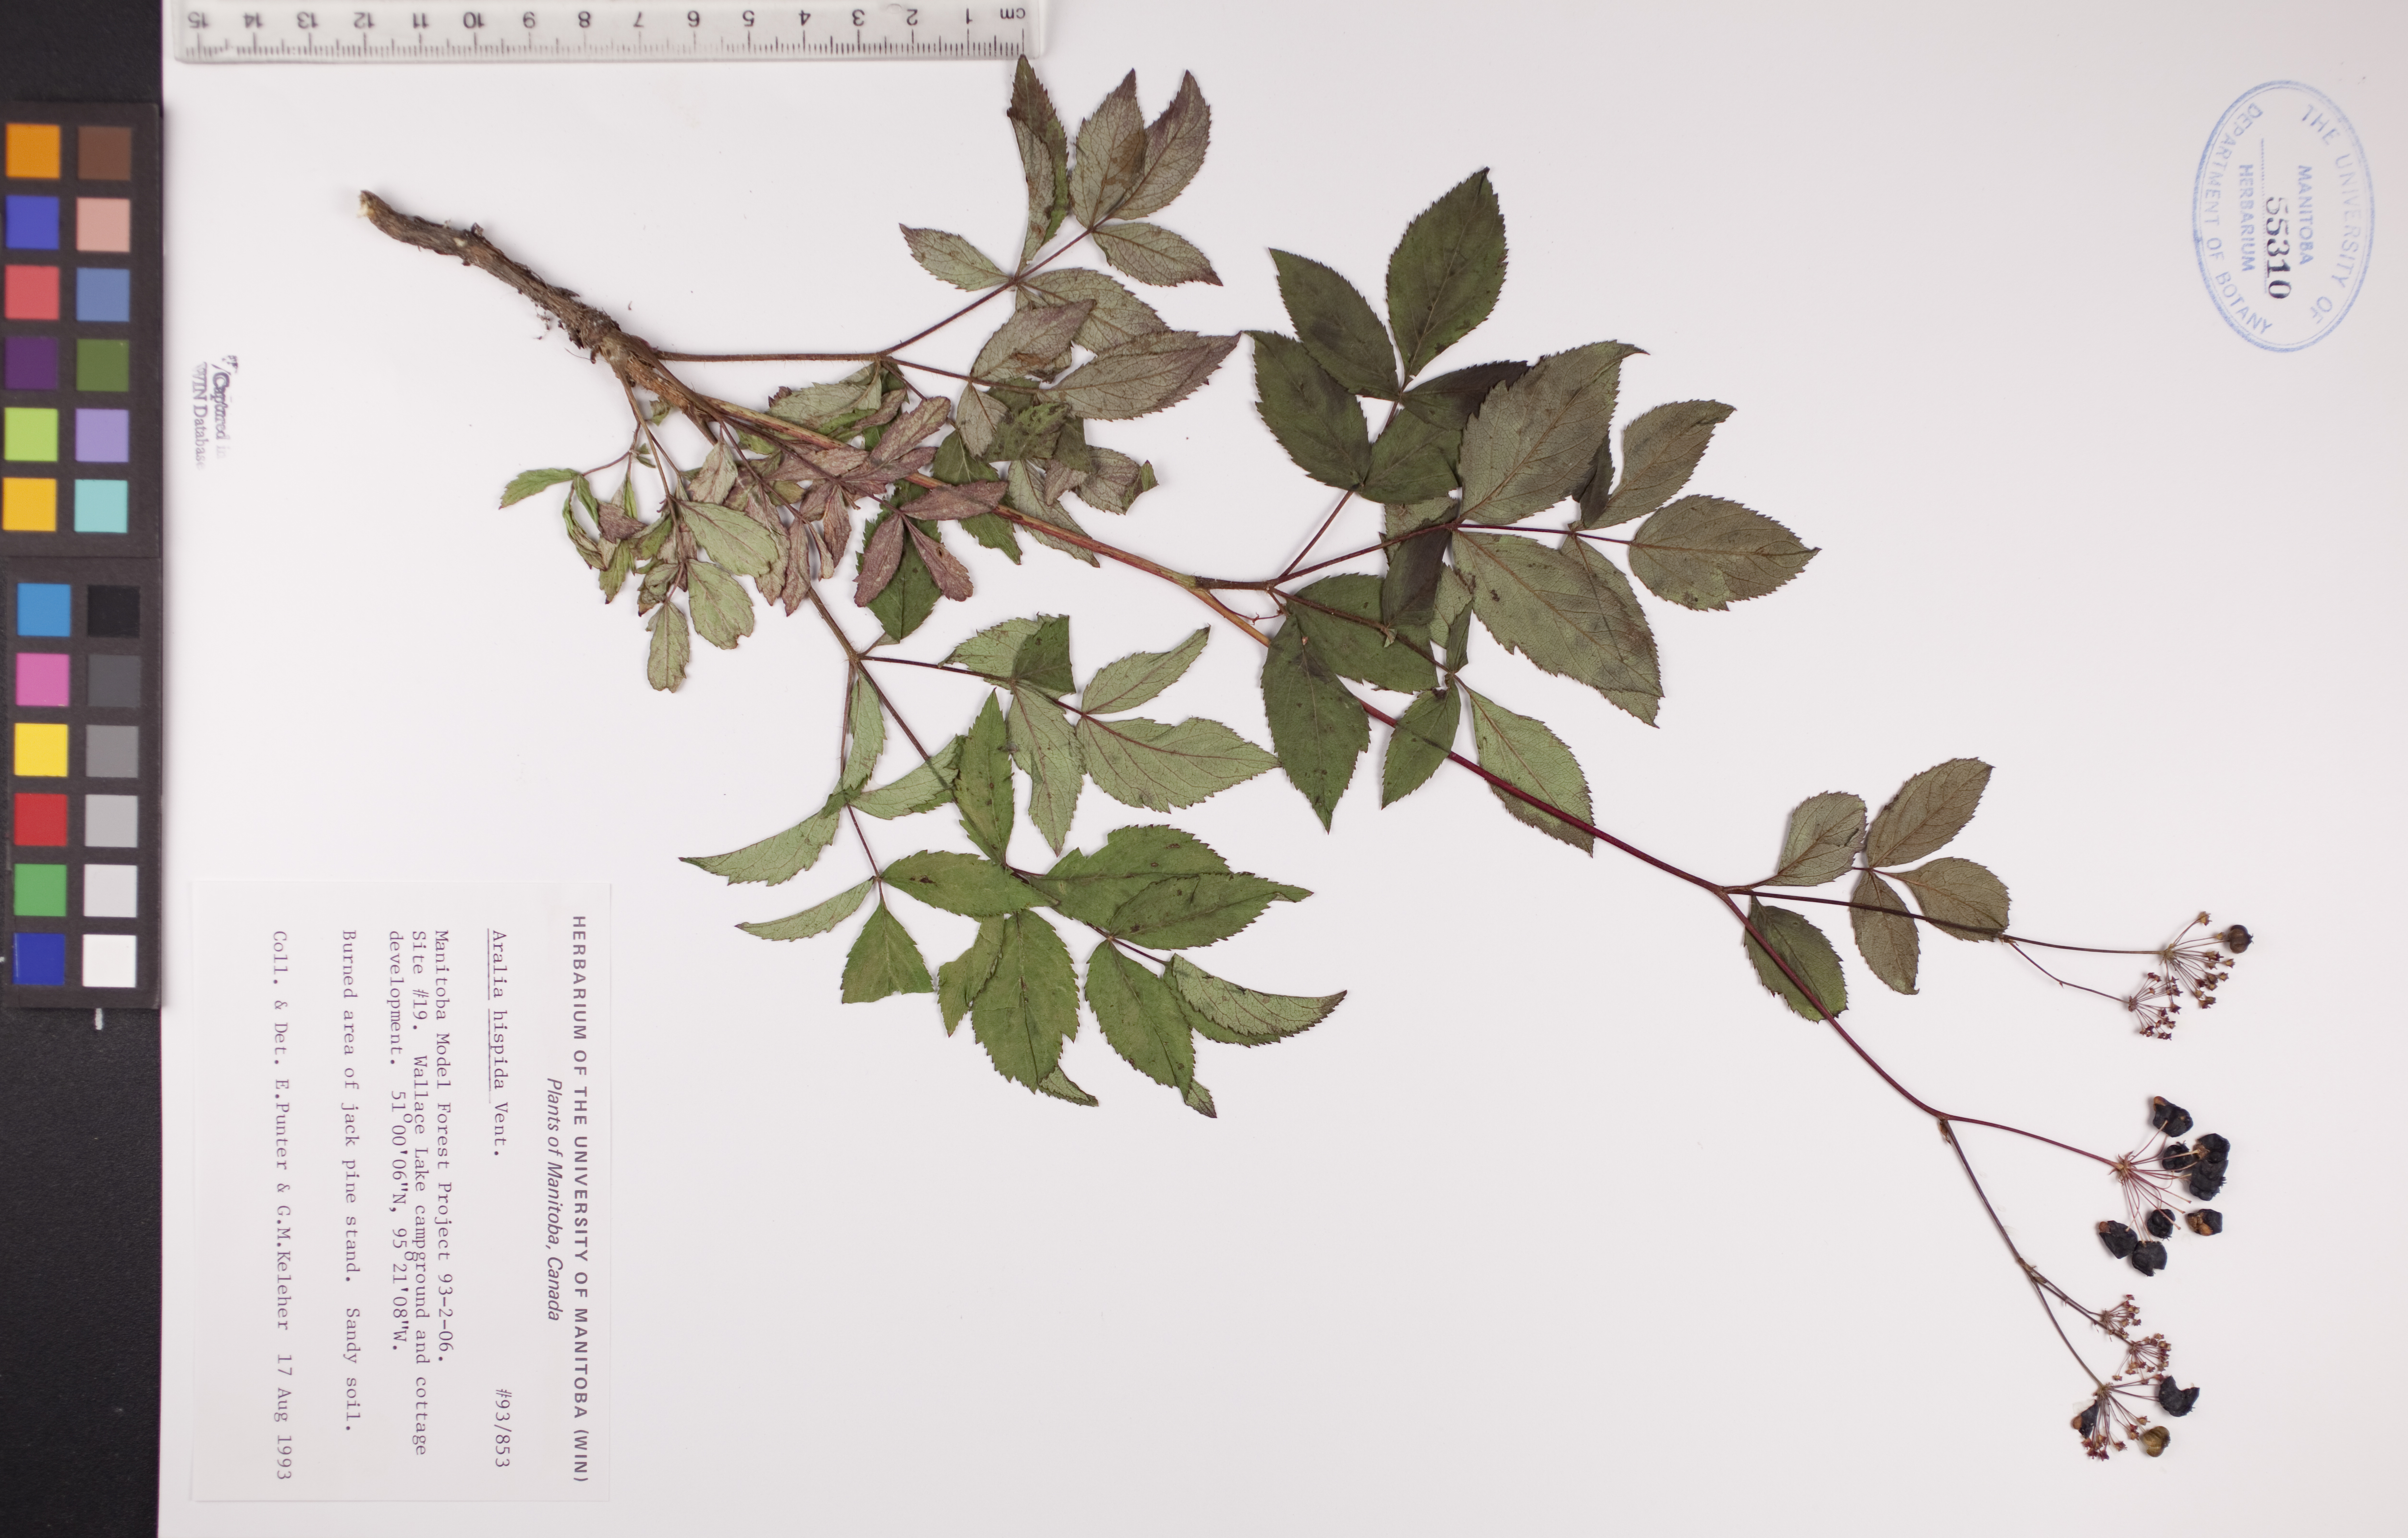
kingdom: Plantae
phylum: Tracheophyta
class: Magnoliopsida
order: Apiales
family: Araliaceae
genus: Aralia
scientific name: Aralia hispida
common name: Bristly sarsaparilla
